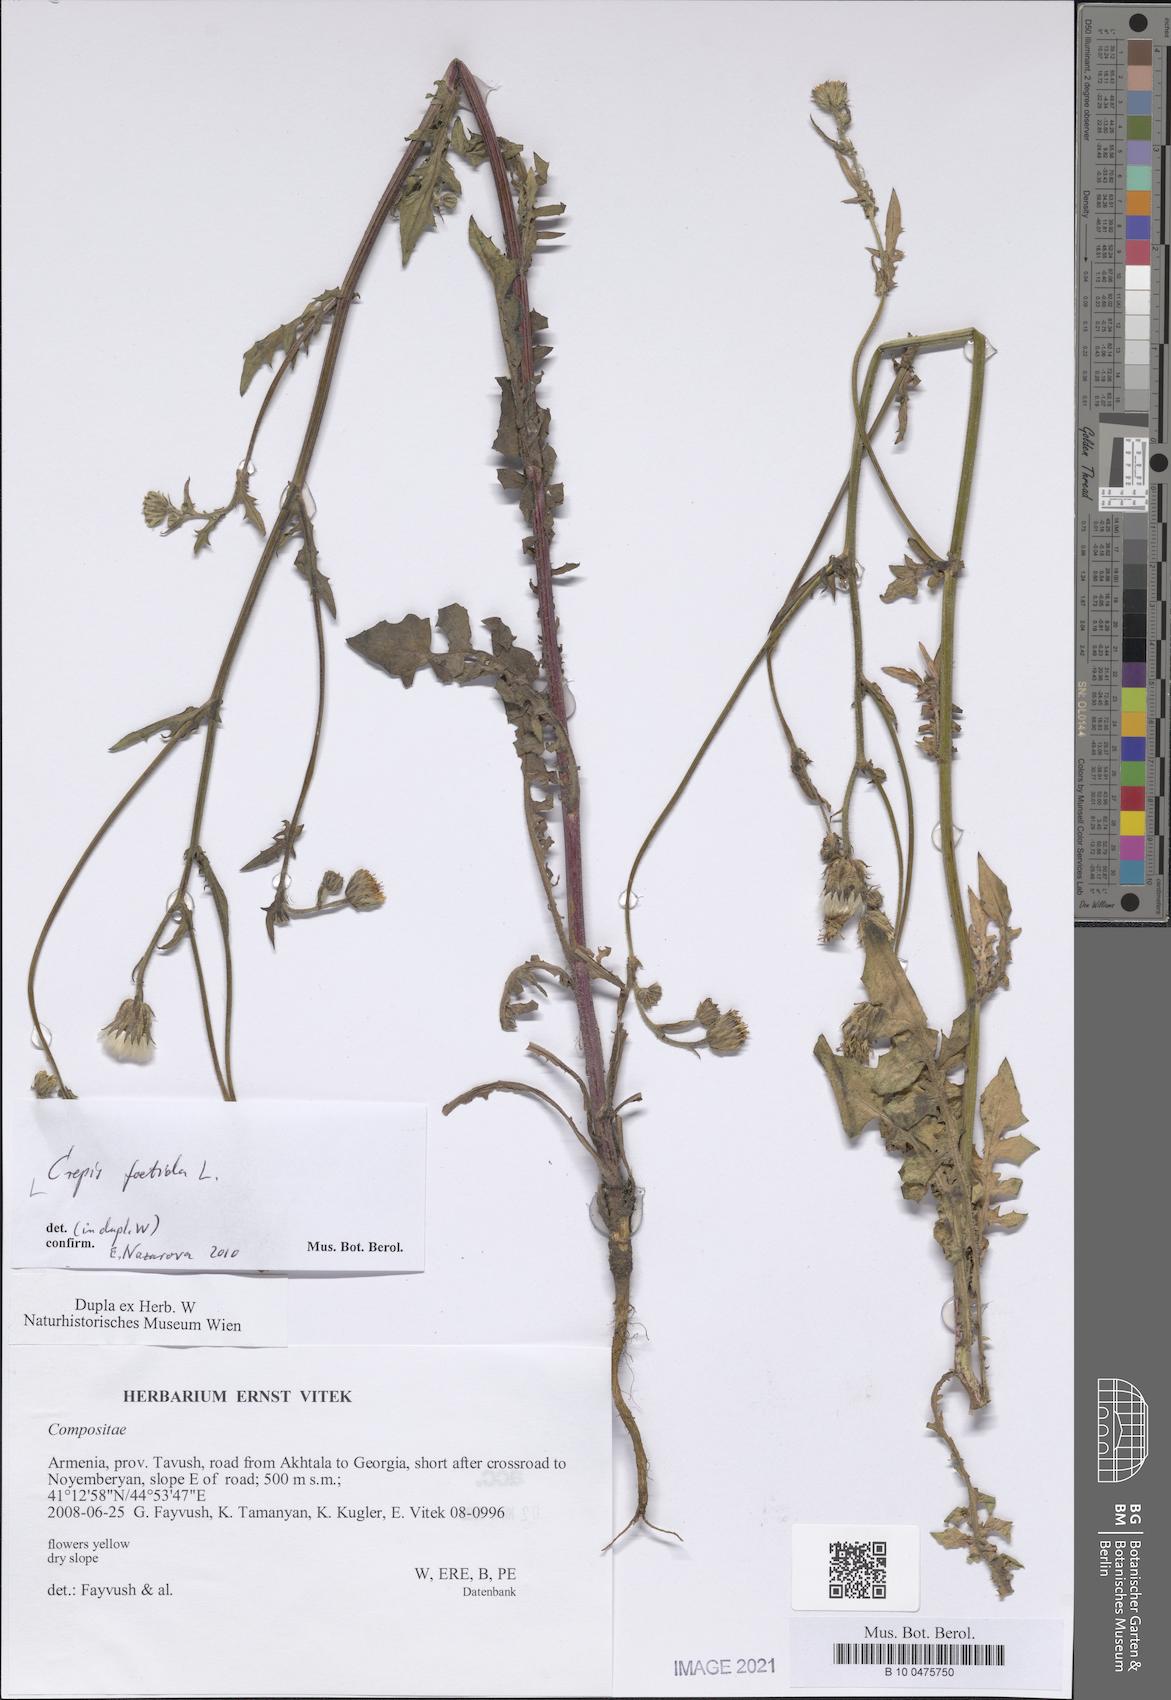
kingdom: Plantae
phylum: Tracheophyta
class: Magnoliopsida
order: Asterales
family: Asteraceae
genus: Crepis
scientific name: Crepis foetida
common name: Stinking hawk's-beard
